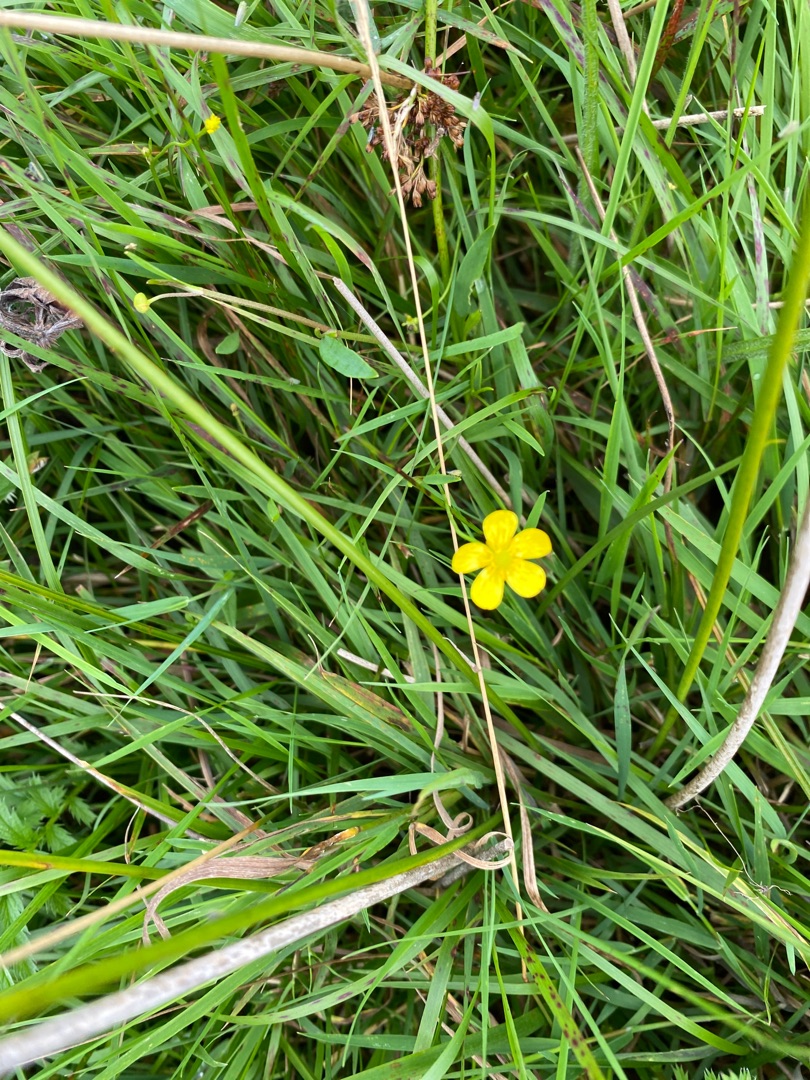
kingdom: Plantae
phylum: Tracheophyta
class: Magnoliopsida
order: Ranunculales
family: Ranunculaceae
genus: Ranunculus
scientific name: Ranunculus flammula
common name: Kær-ranunkel
